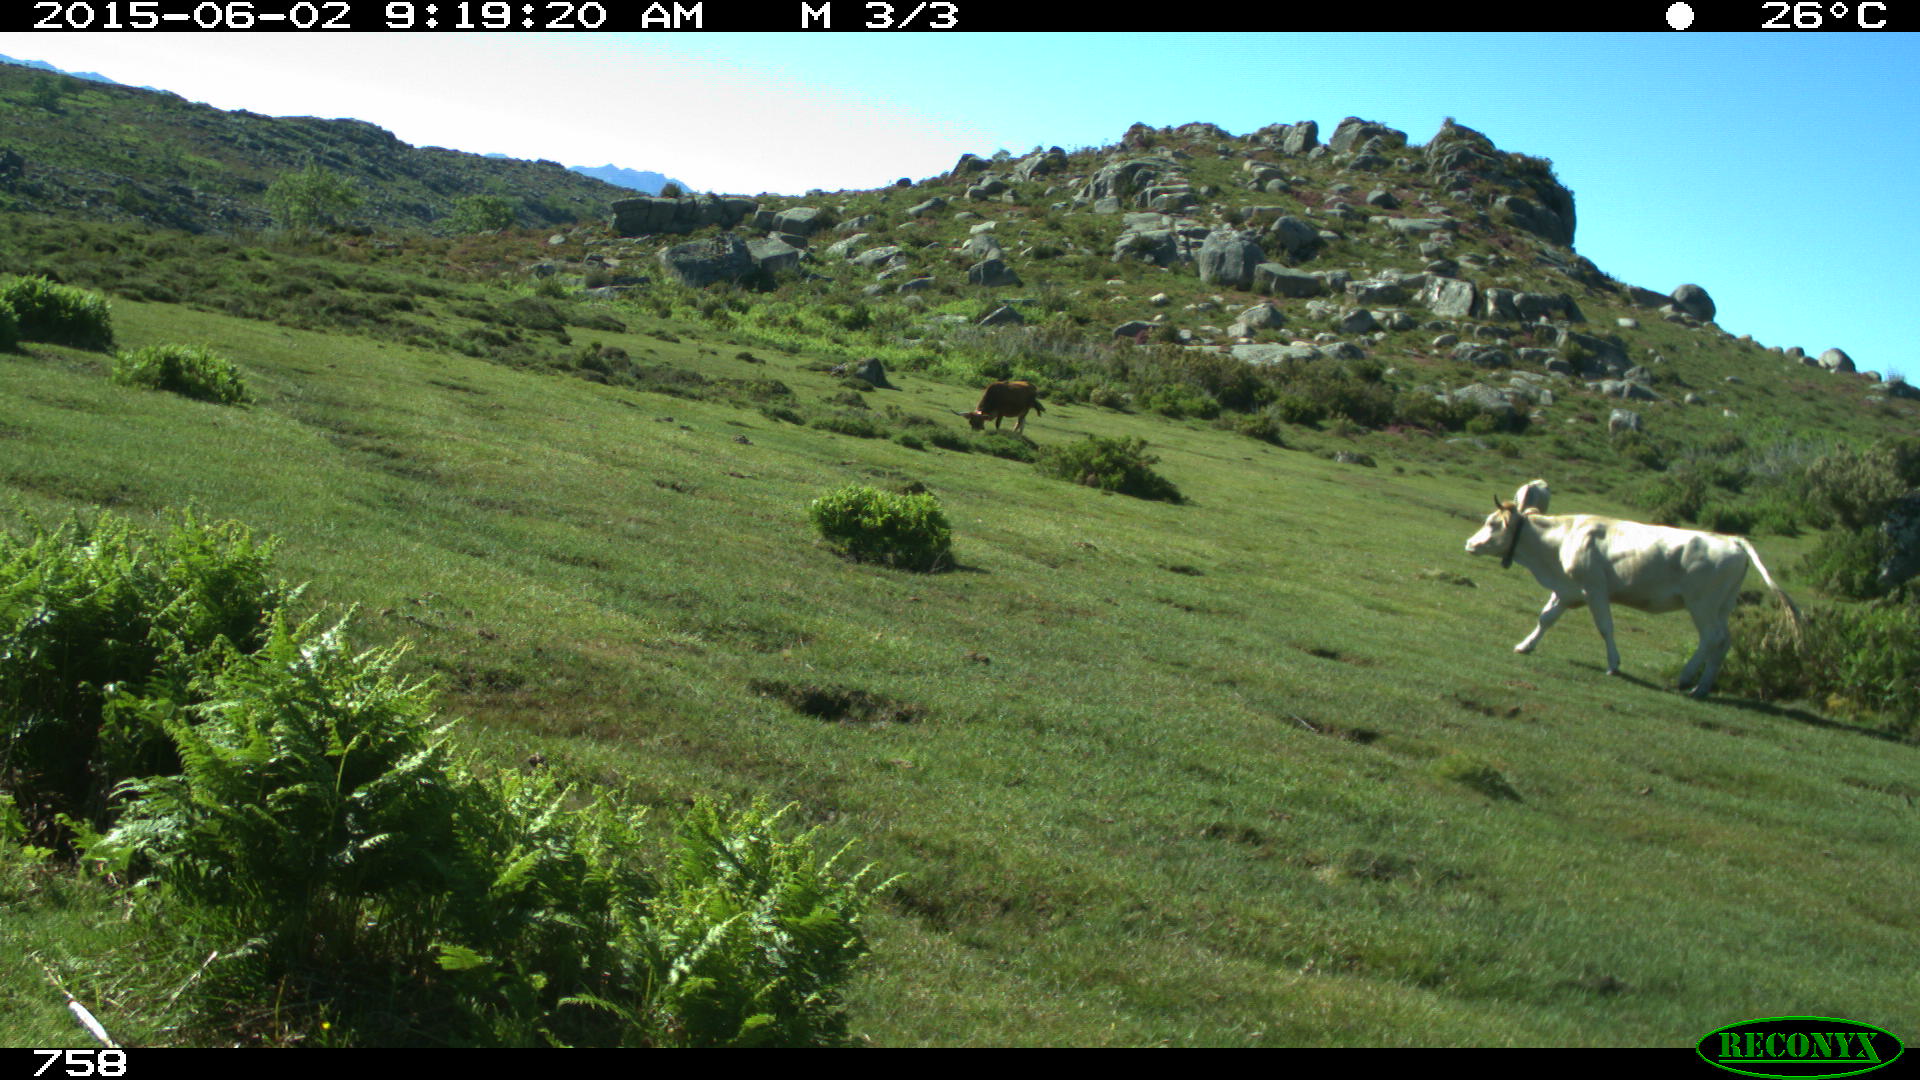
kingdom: Animalia
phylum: Chordata
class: Mammalia
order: Artiodactyla
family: Bovidae
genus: Bos
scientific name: Bos taurus
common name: Domesticated cattle
